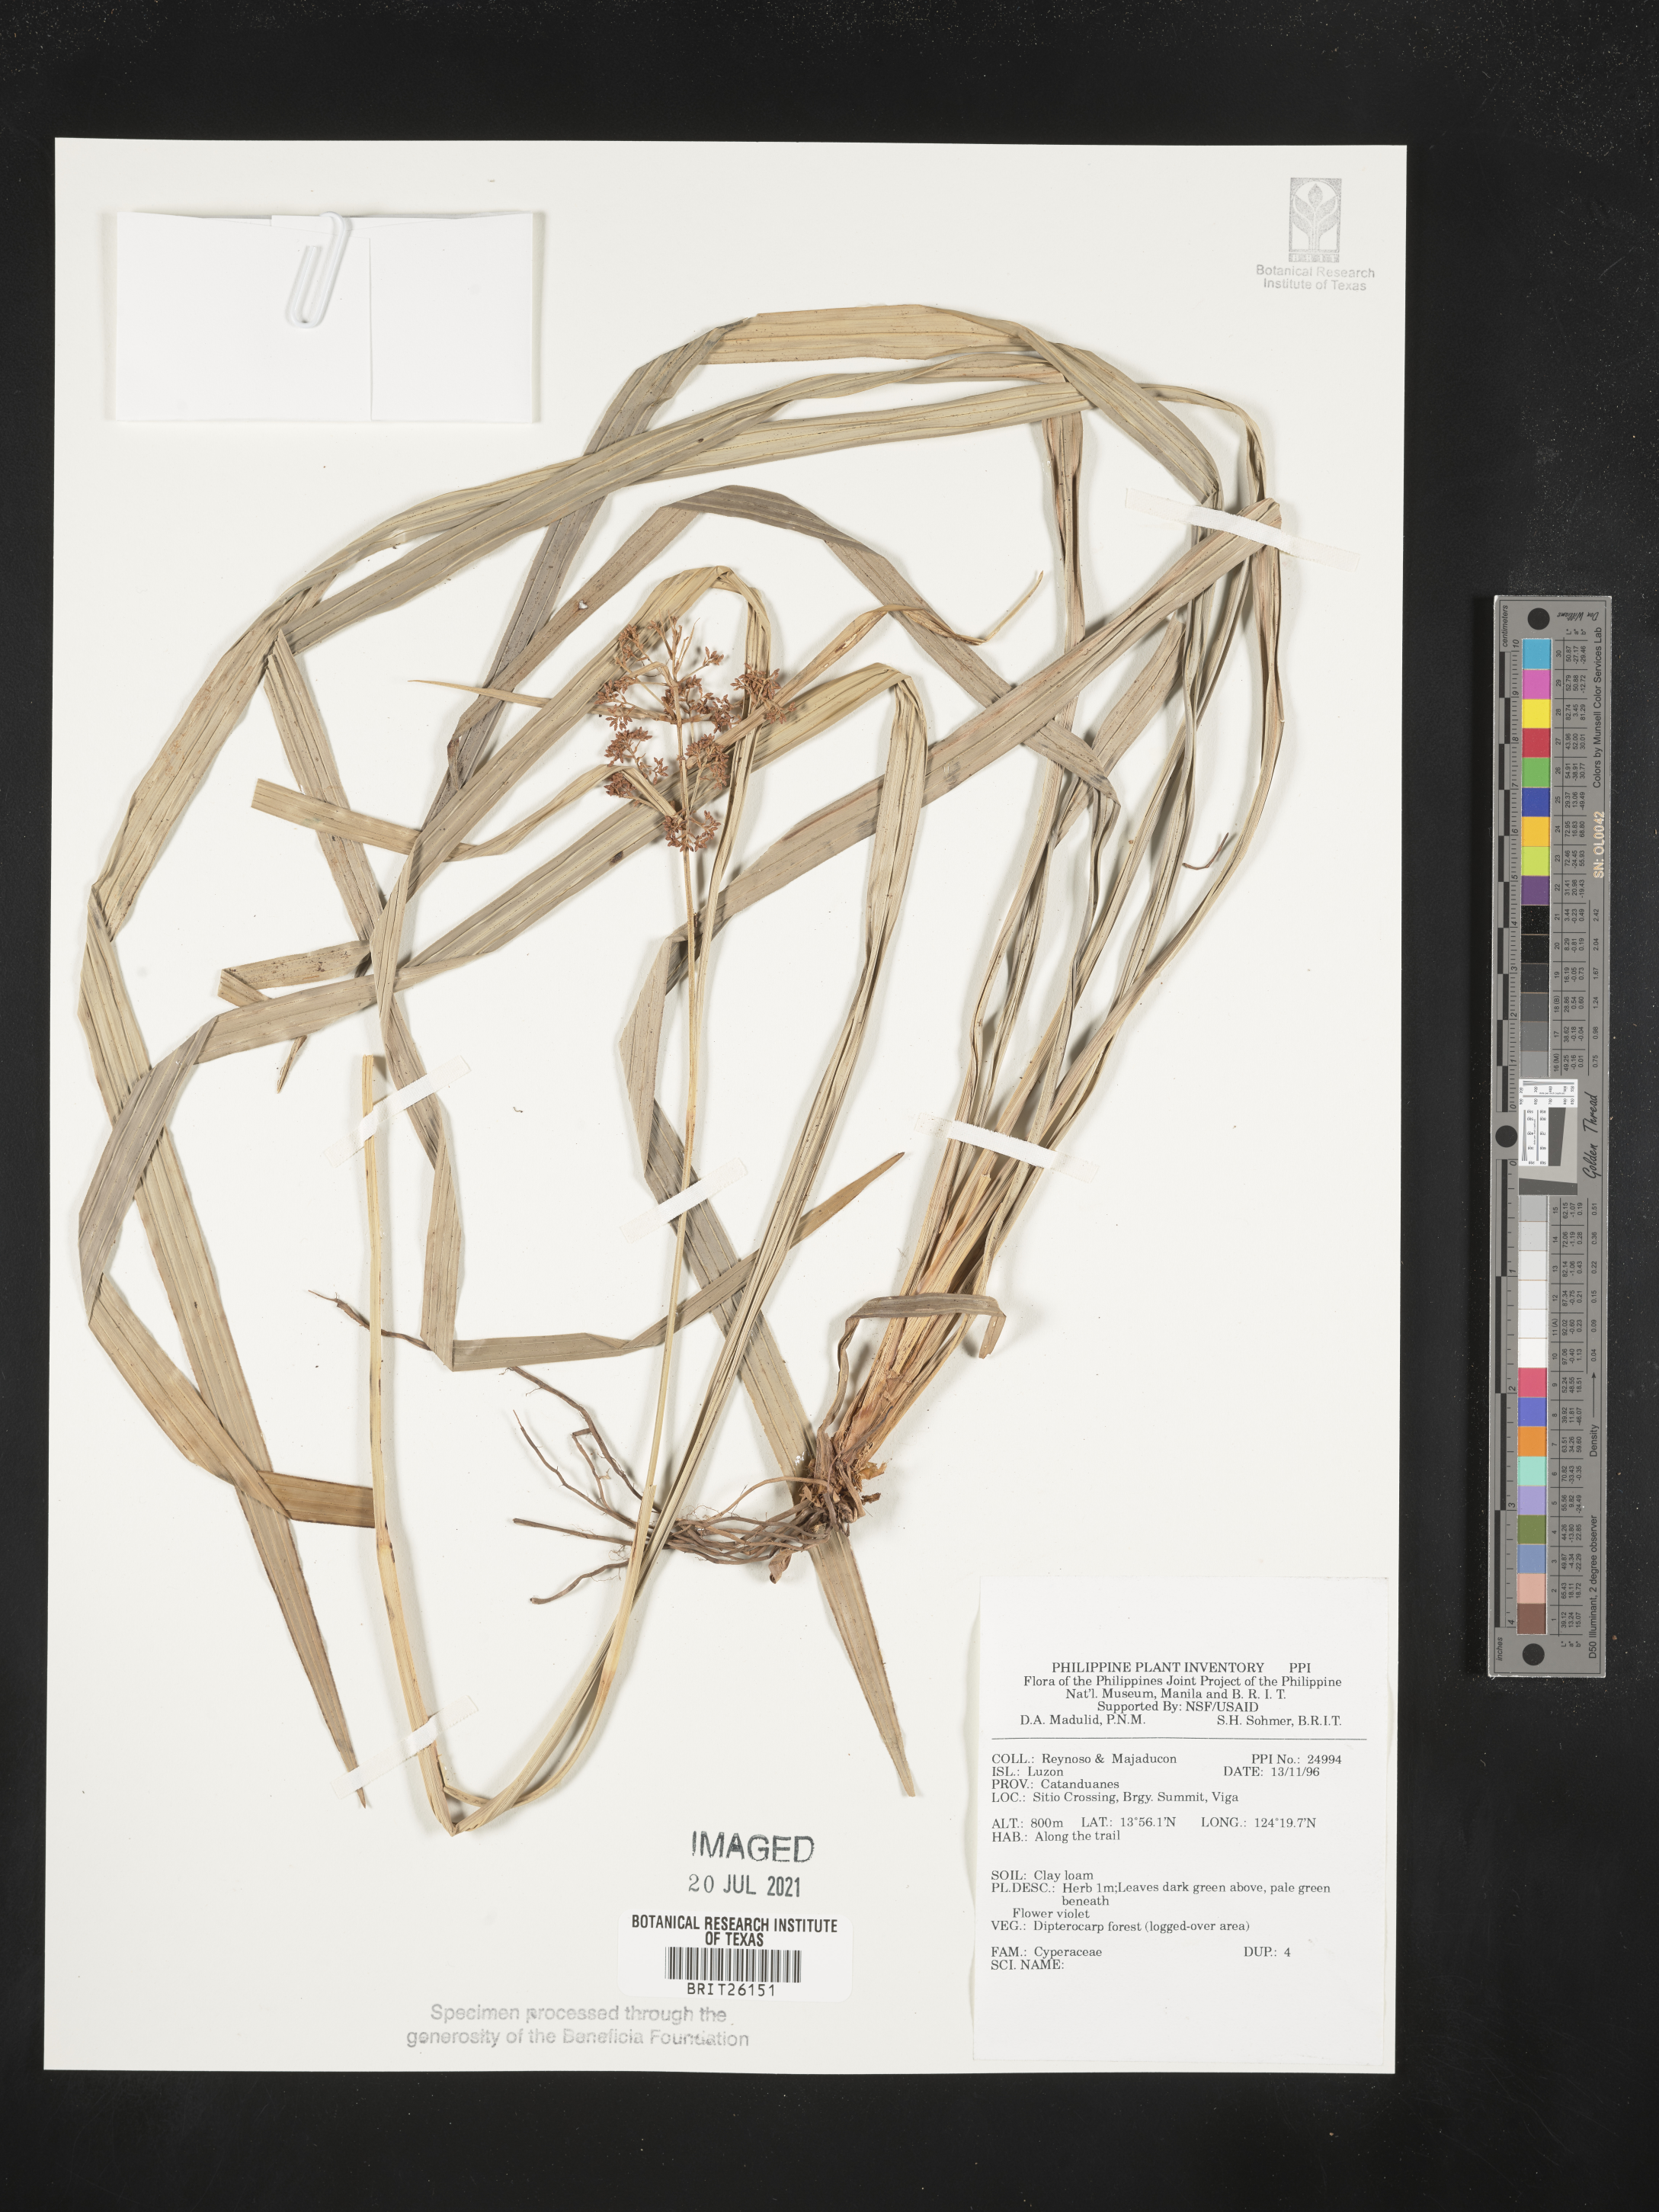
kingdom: Plantae
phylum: Tracheophyta
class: Liliopsida
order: Poales
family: Cyperaceae
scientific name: Cyperaceae
